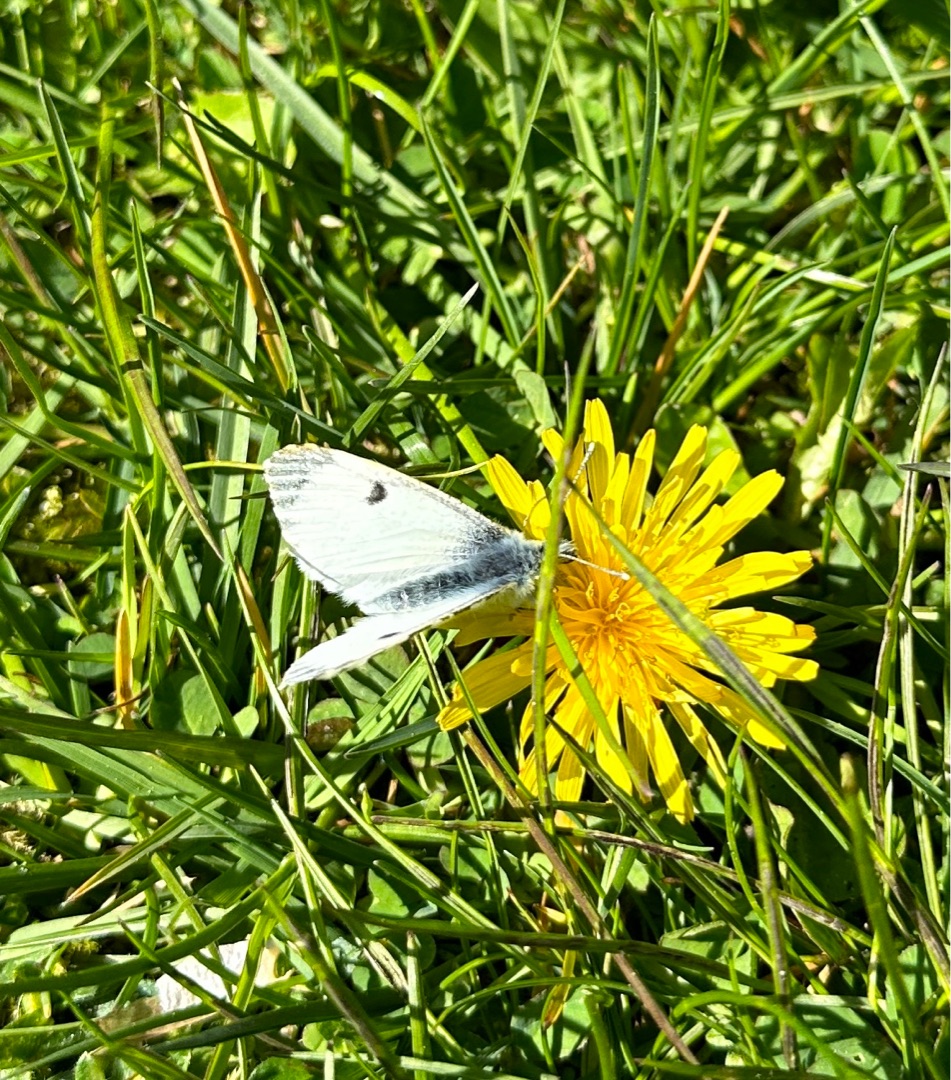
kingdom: Animalia
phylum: Arthropoda
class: Insecta
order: Lepidoptera
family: Pieridae
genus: Anthocharis
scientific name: Anthocharis cardamines
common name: Aurora
